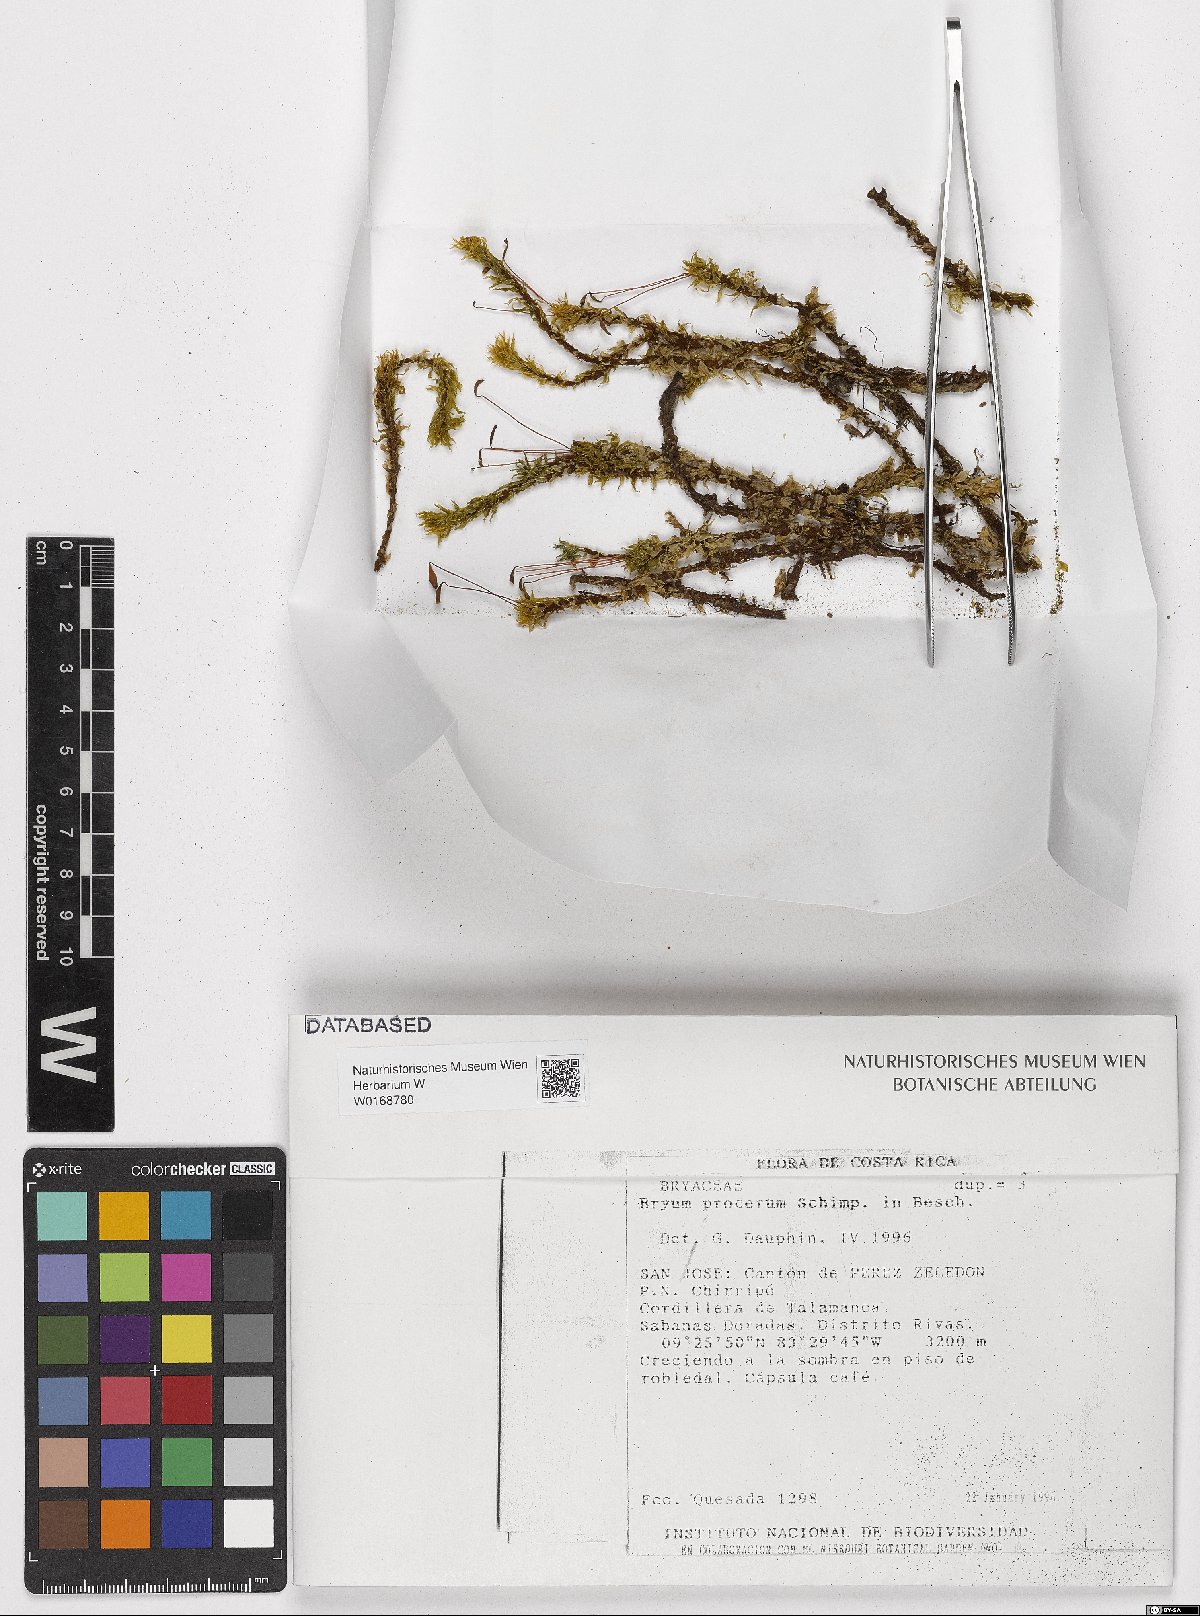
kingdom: Plantae
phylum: Bryophyta
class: Bryopsida
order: Bryales
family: Bryaceae
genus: Bryum
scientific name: Bryum
